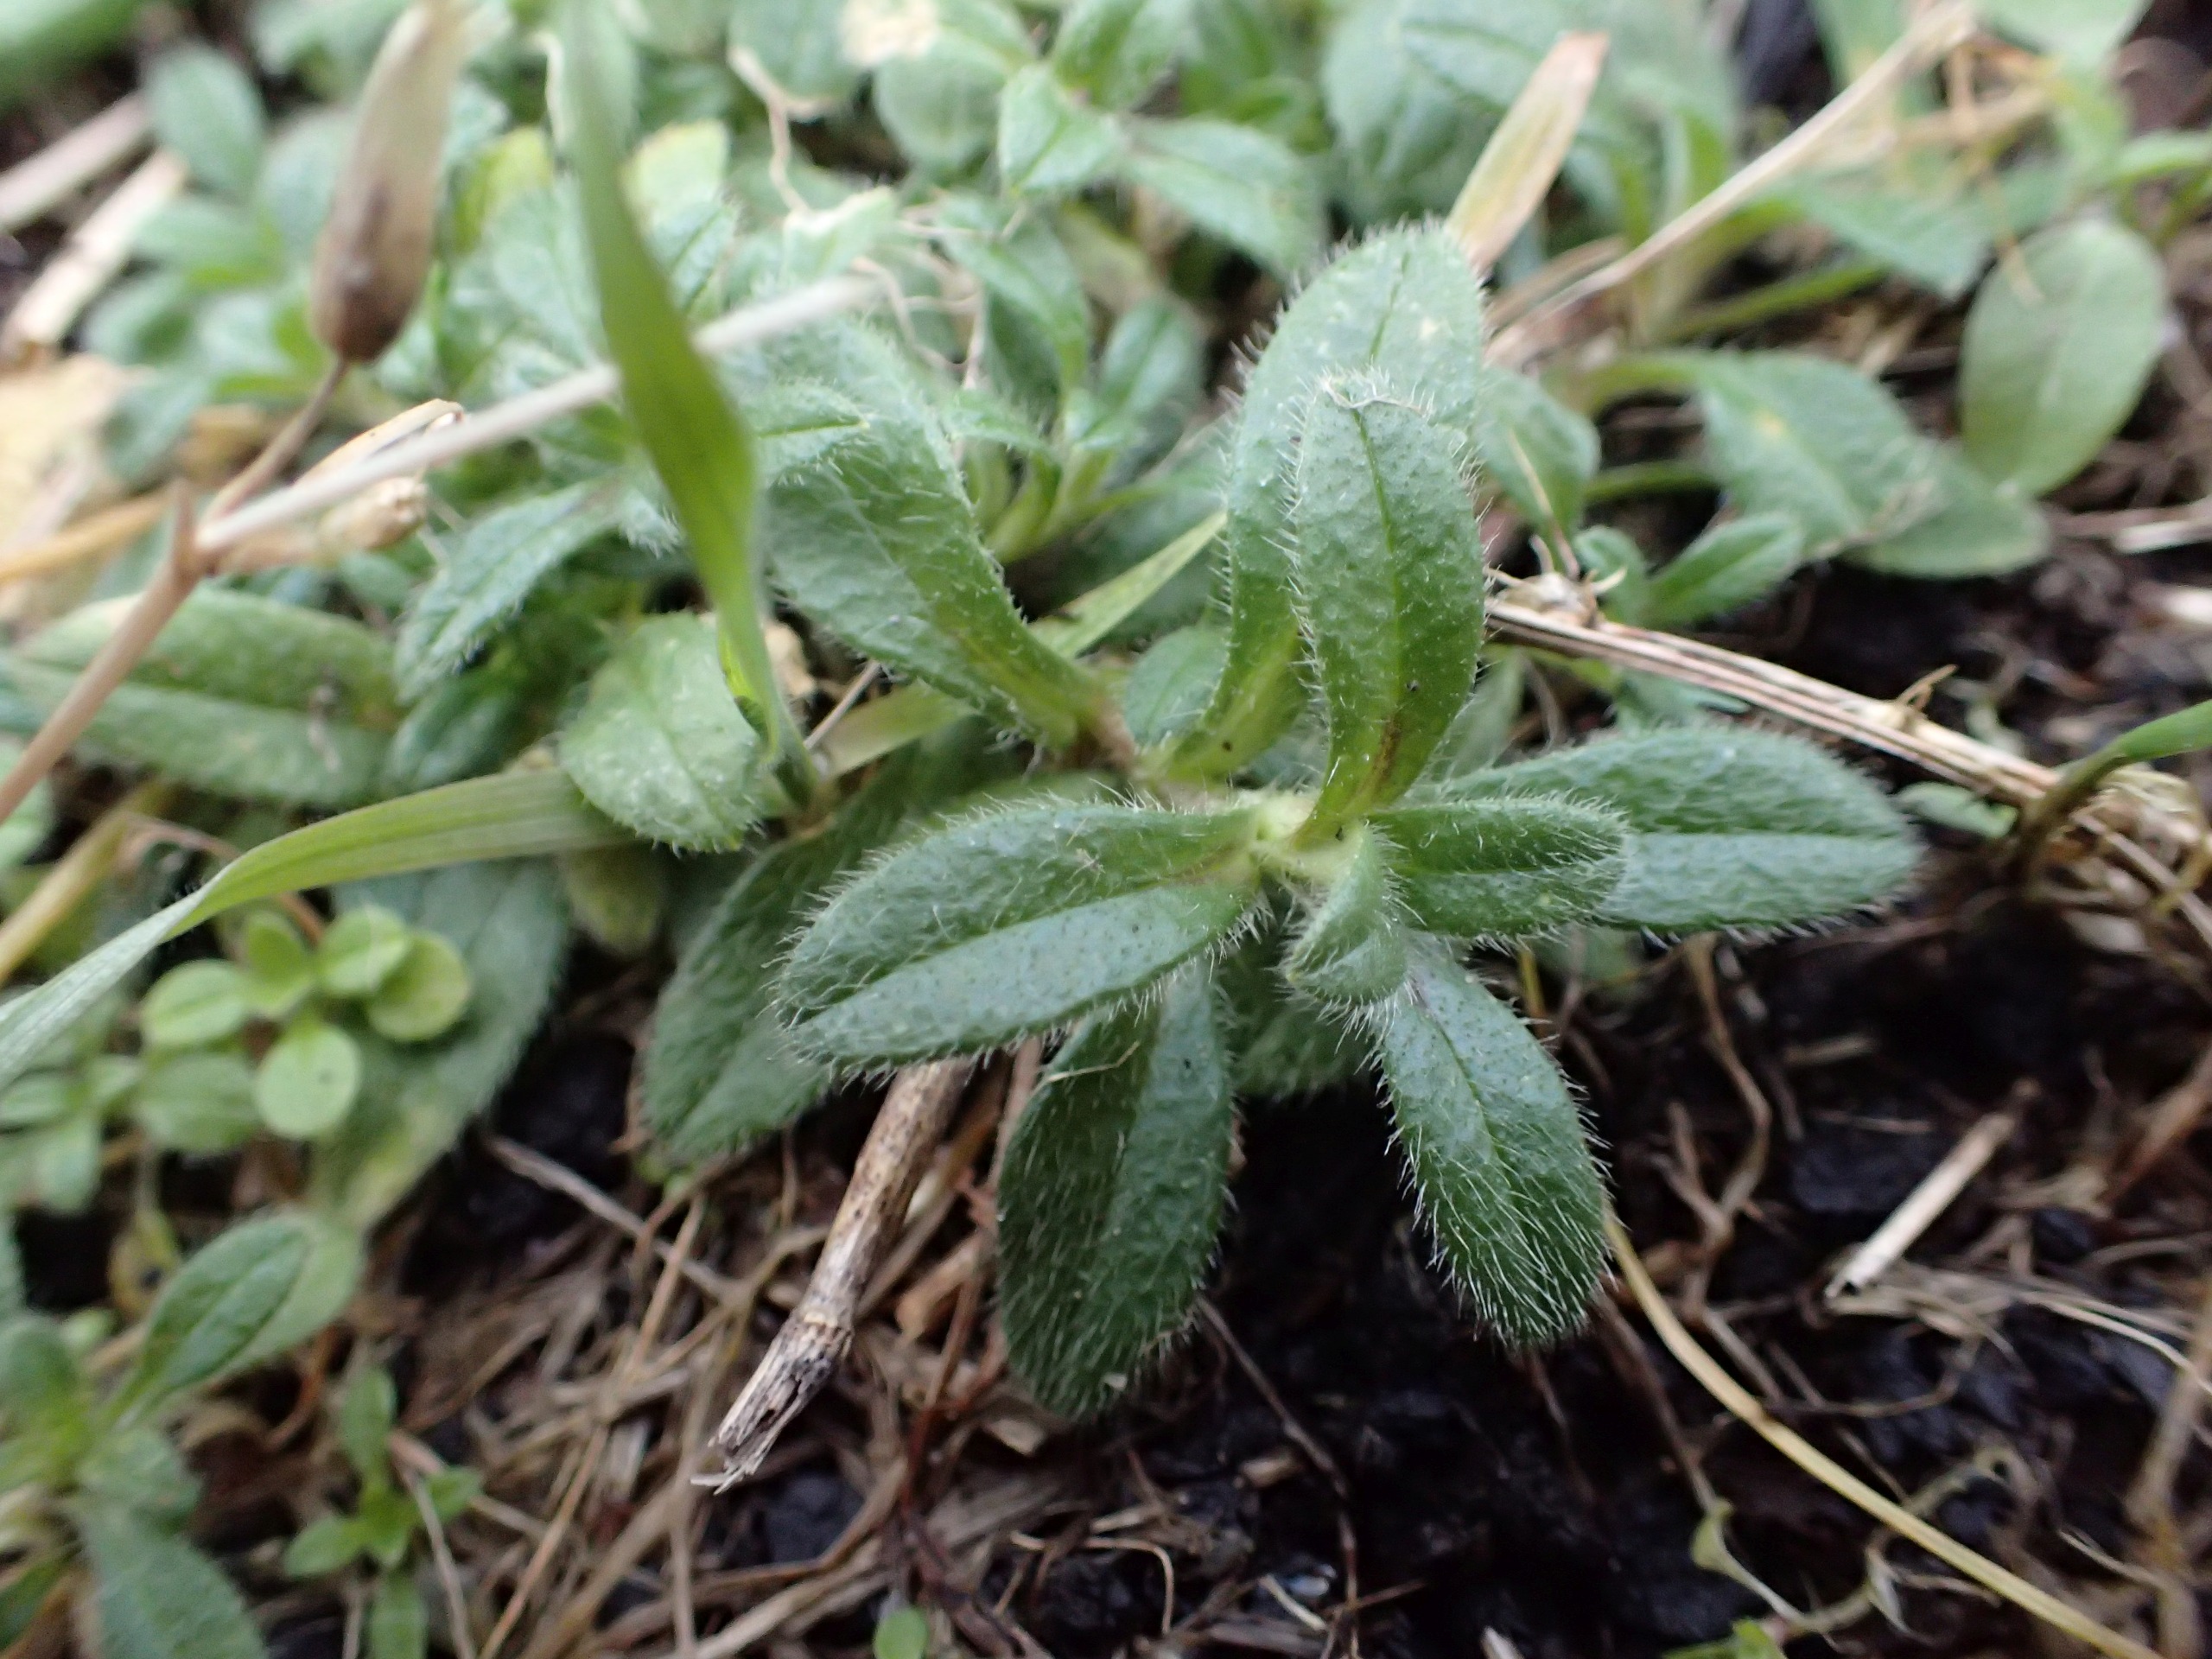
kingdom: Plantae
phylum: Tracheophyta
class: Magnoliopsida
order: Caryophyllales
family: Caryophyllaceae
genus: Cerastium
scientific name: Cerastium fontanum
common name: Almindelig hønsetarm
